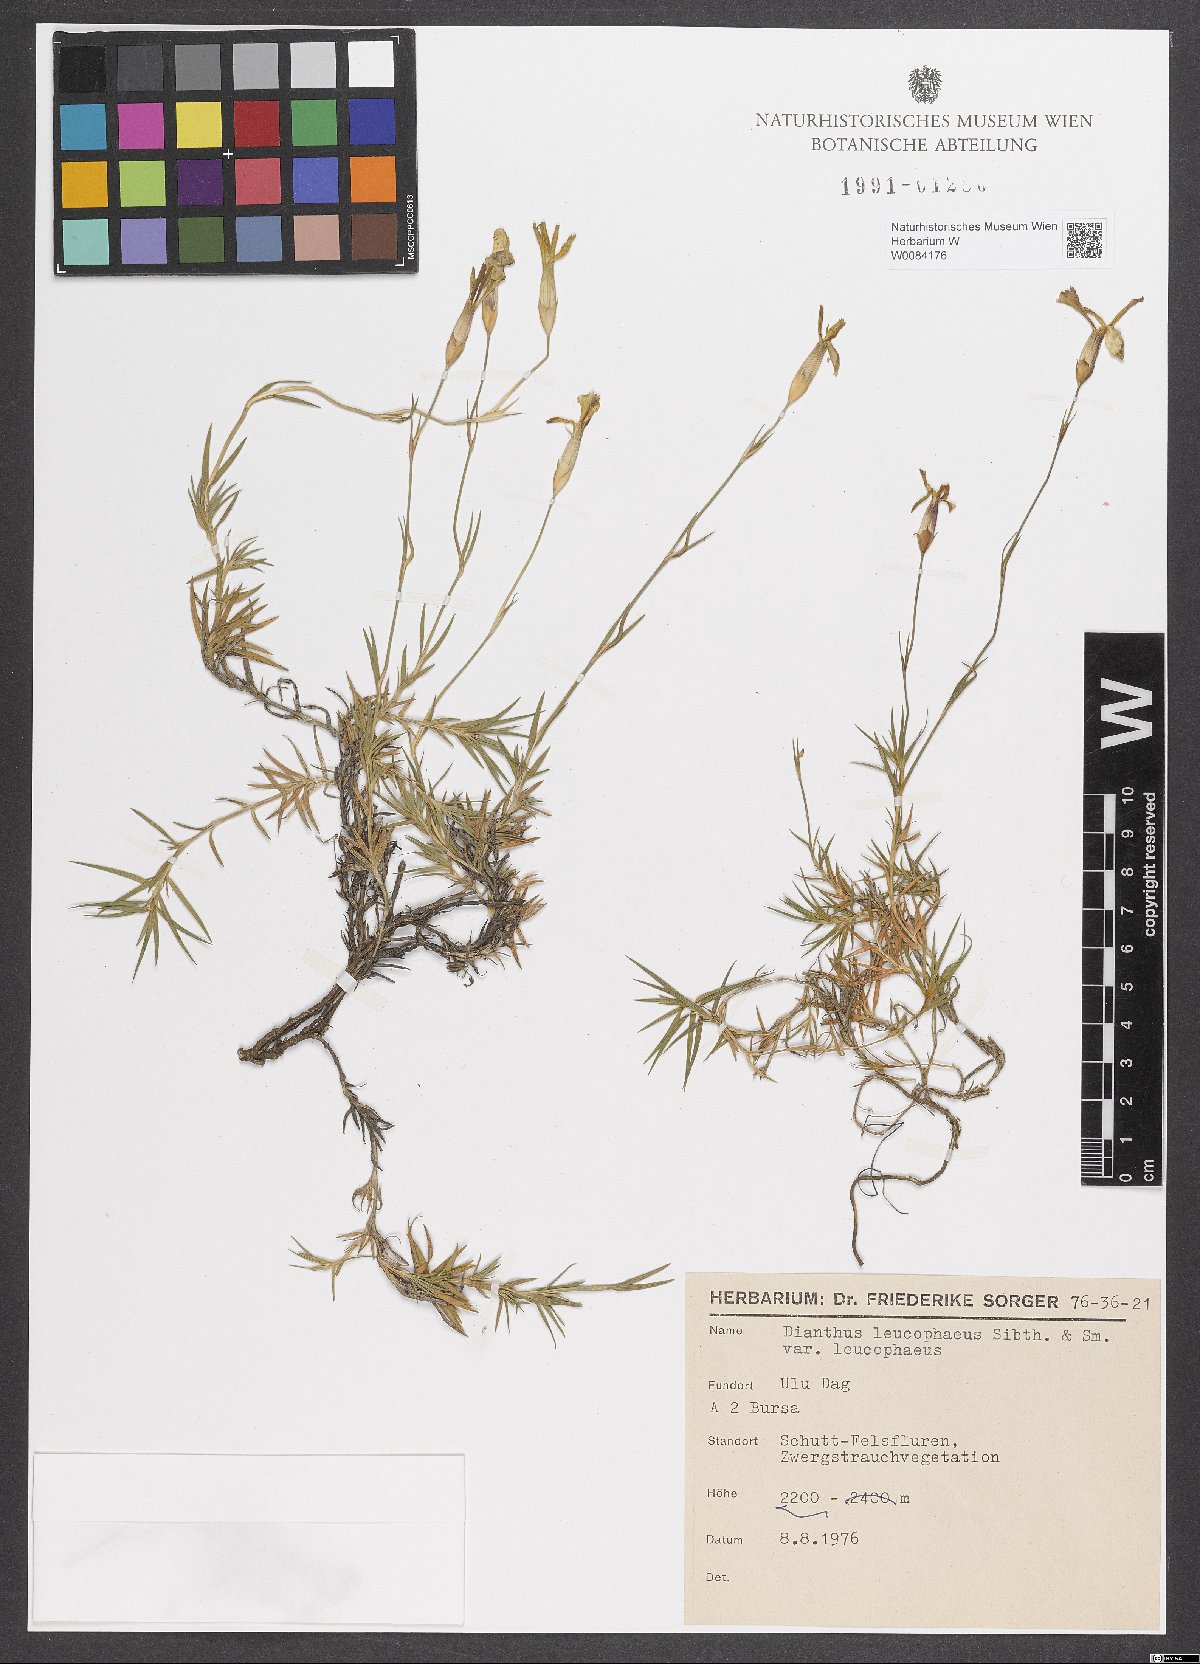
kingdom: Plantae
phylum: Tracheophyta
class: Magnoliopsida
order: Caryophyllales
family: Caryophyllaceae
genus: Dianthus
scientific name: Dianthus leucophaeus
